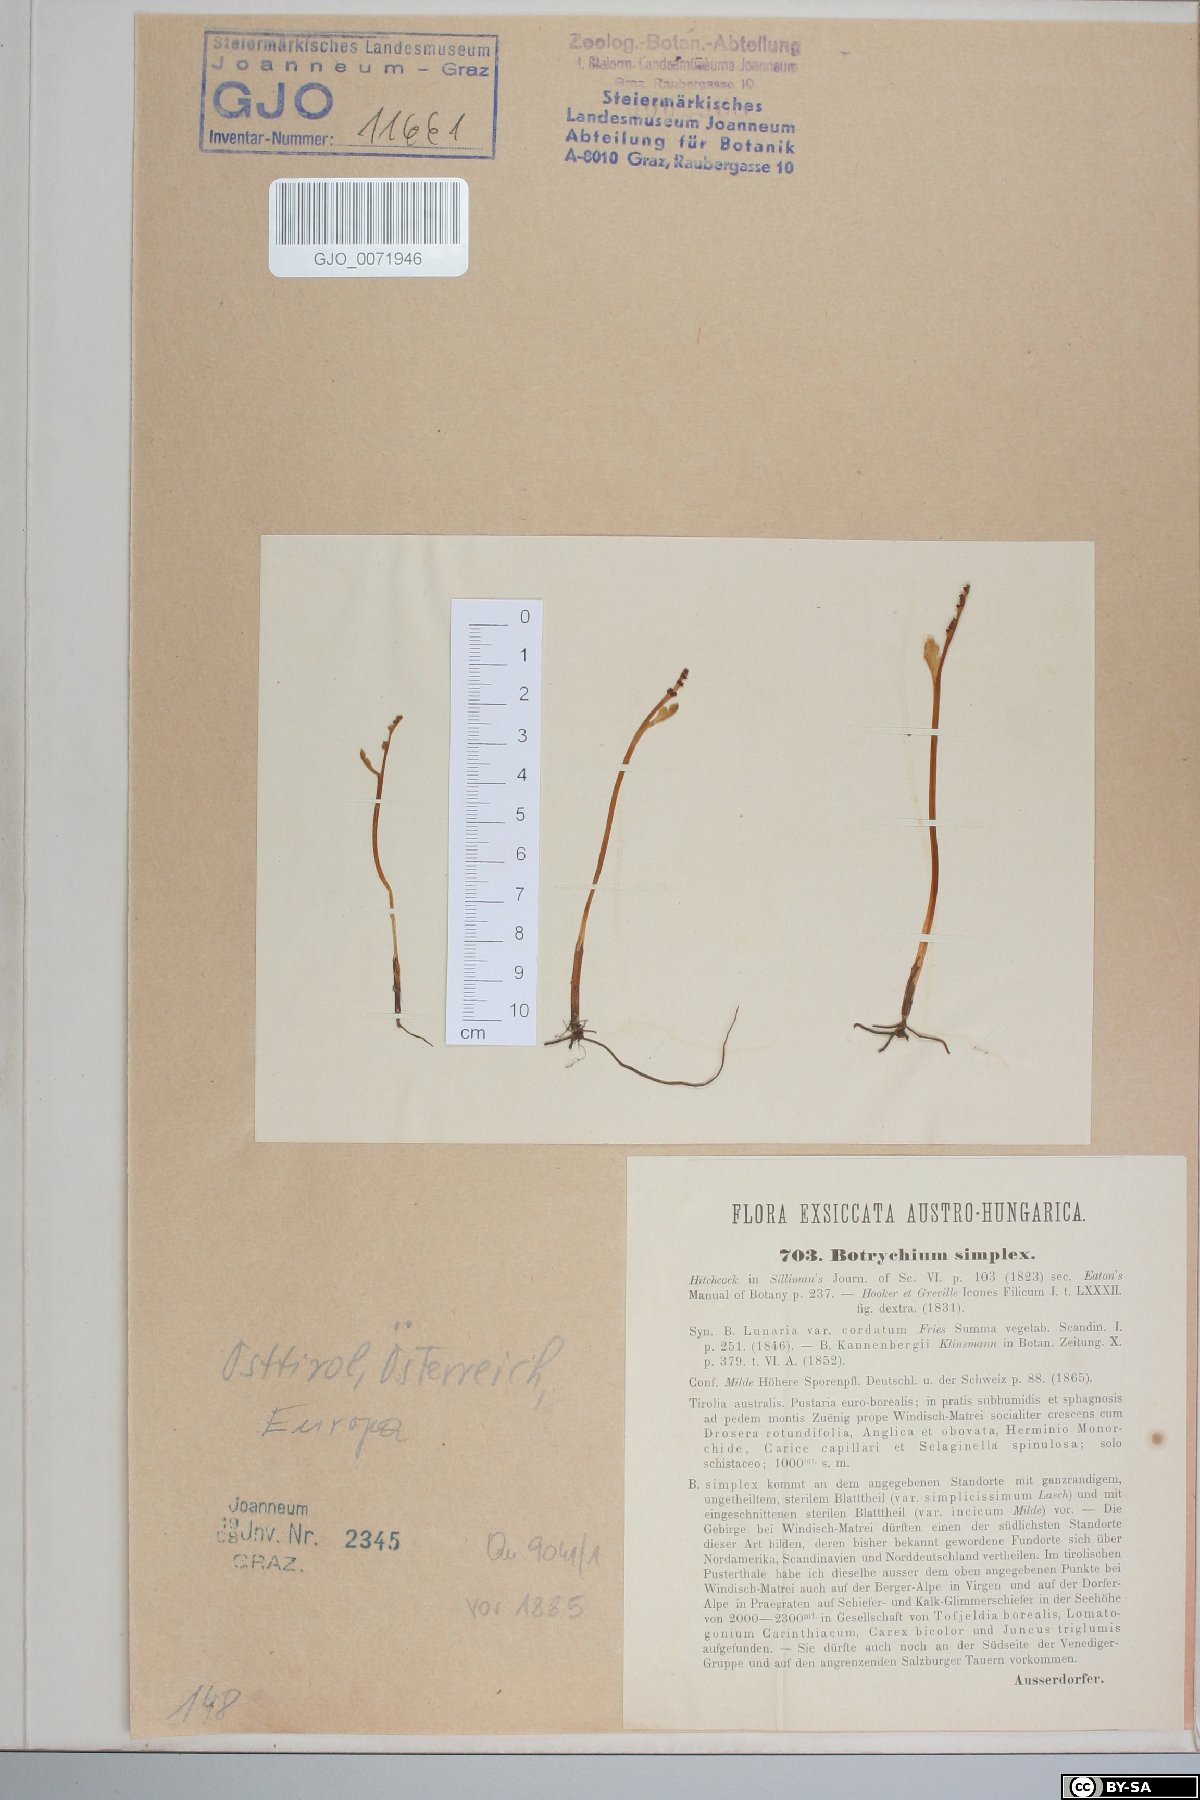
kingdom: Plantae
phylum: Tracheophyta
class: Polypodiopsida
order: Ophioglossales
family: Ophioglossaceae
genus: Botrychium
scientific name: Botrychium simplex
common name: Least moonwort
